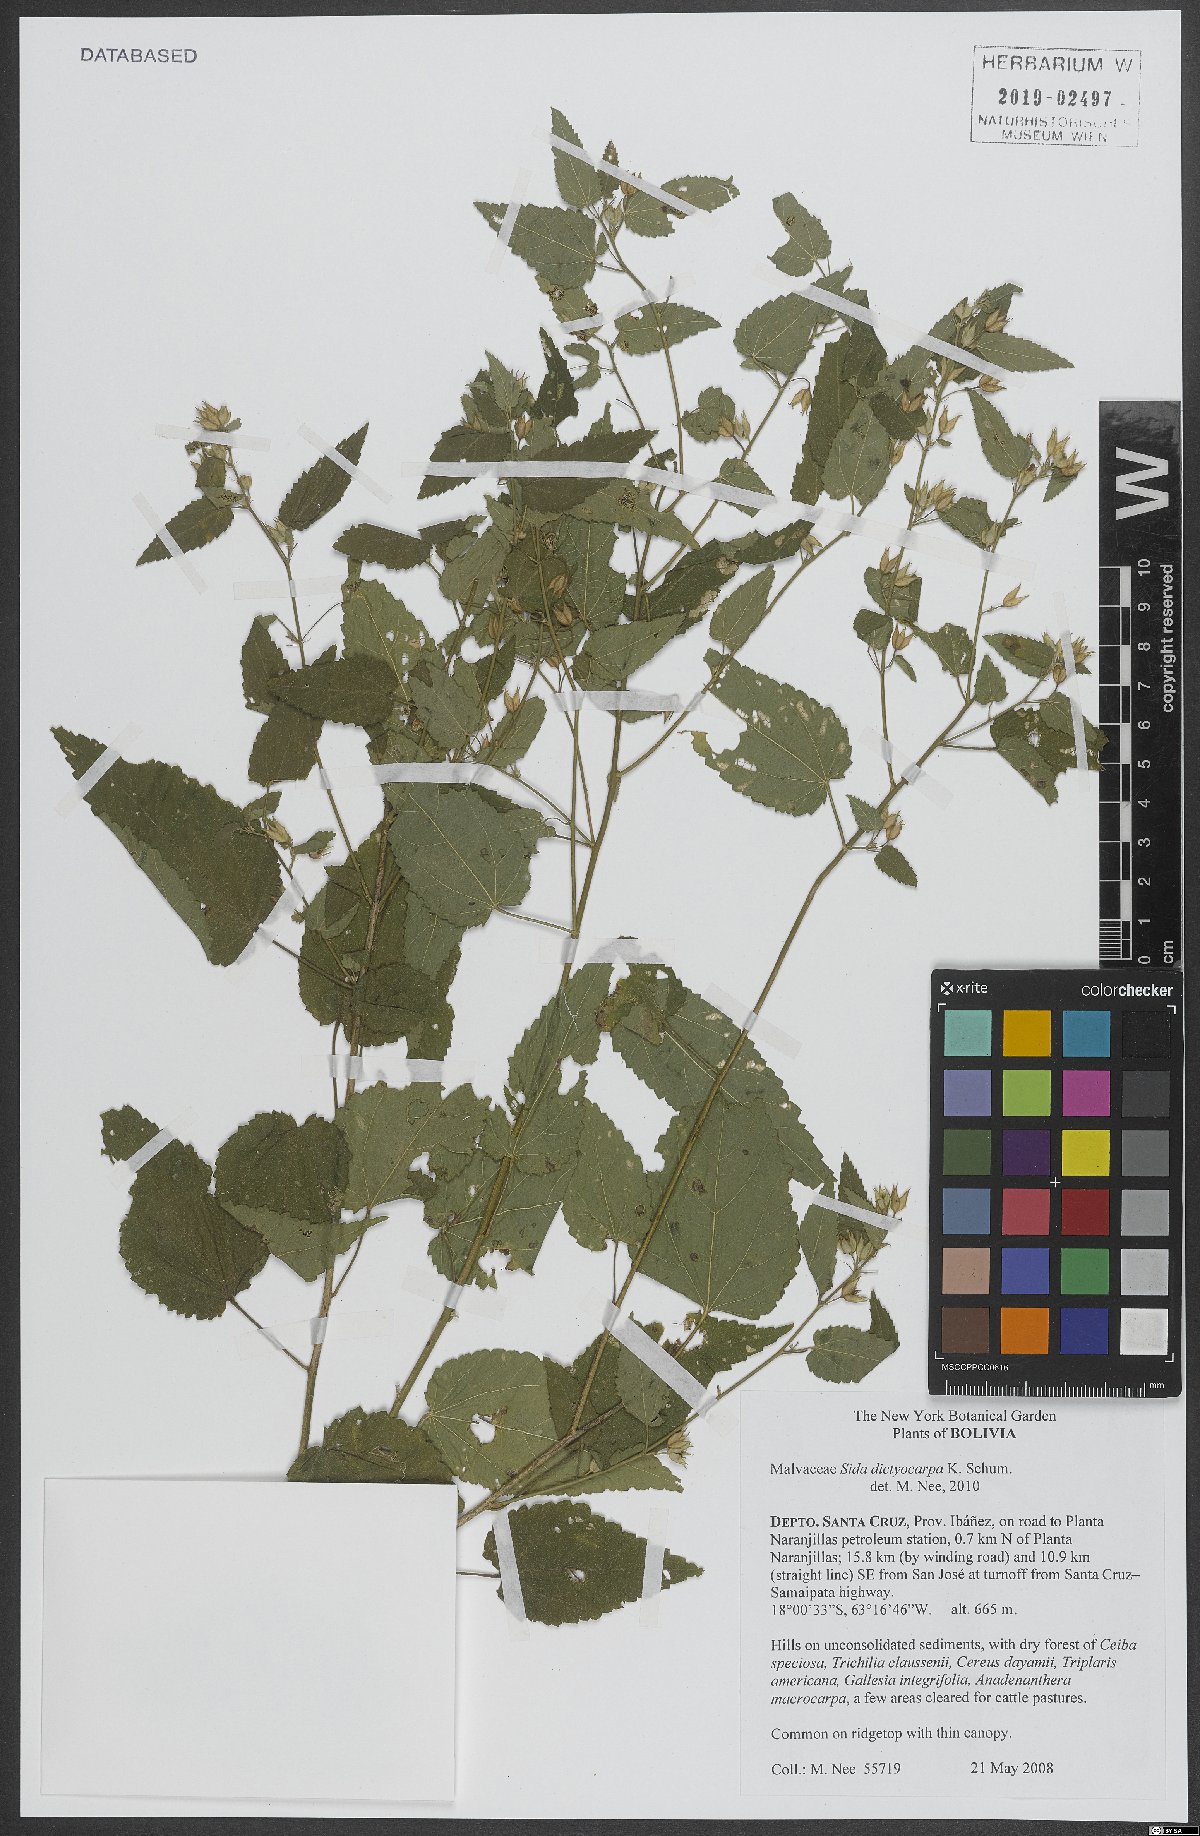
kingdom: Plantae
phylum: Tracheophyta
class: Magnoliopsida
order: Malvales
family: Malvaceae
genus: Sida
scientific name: Sida glabra
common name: Smooth fanpetals
